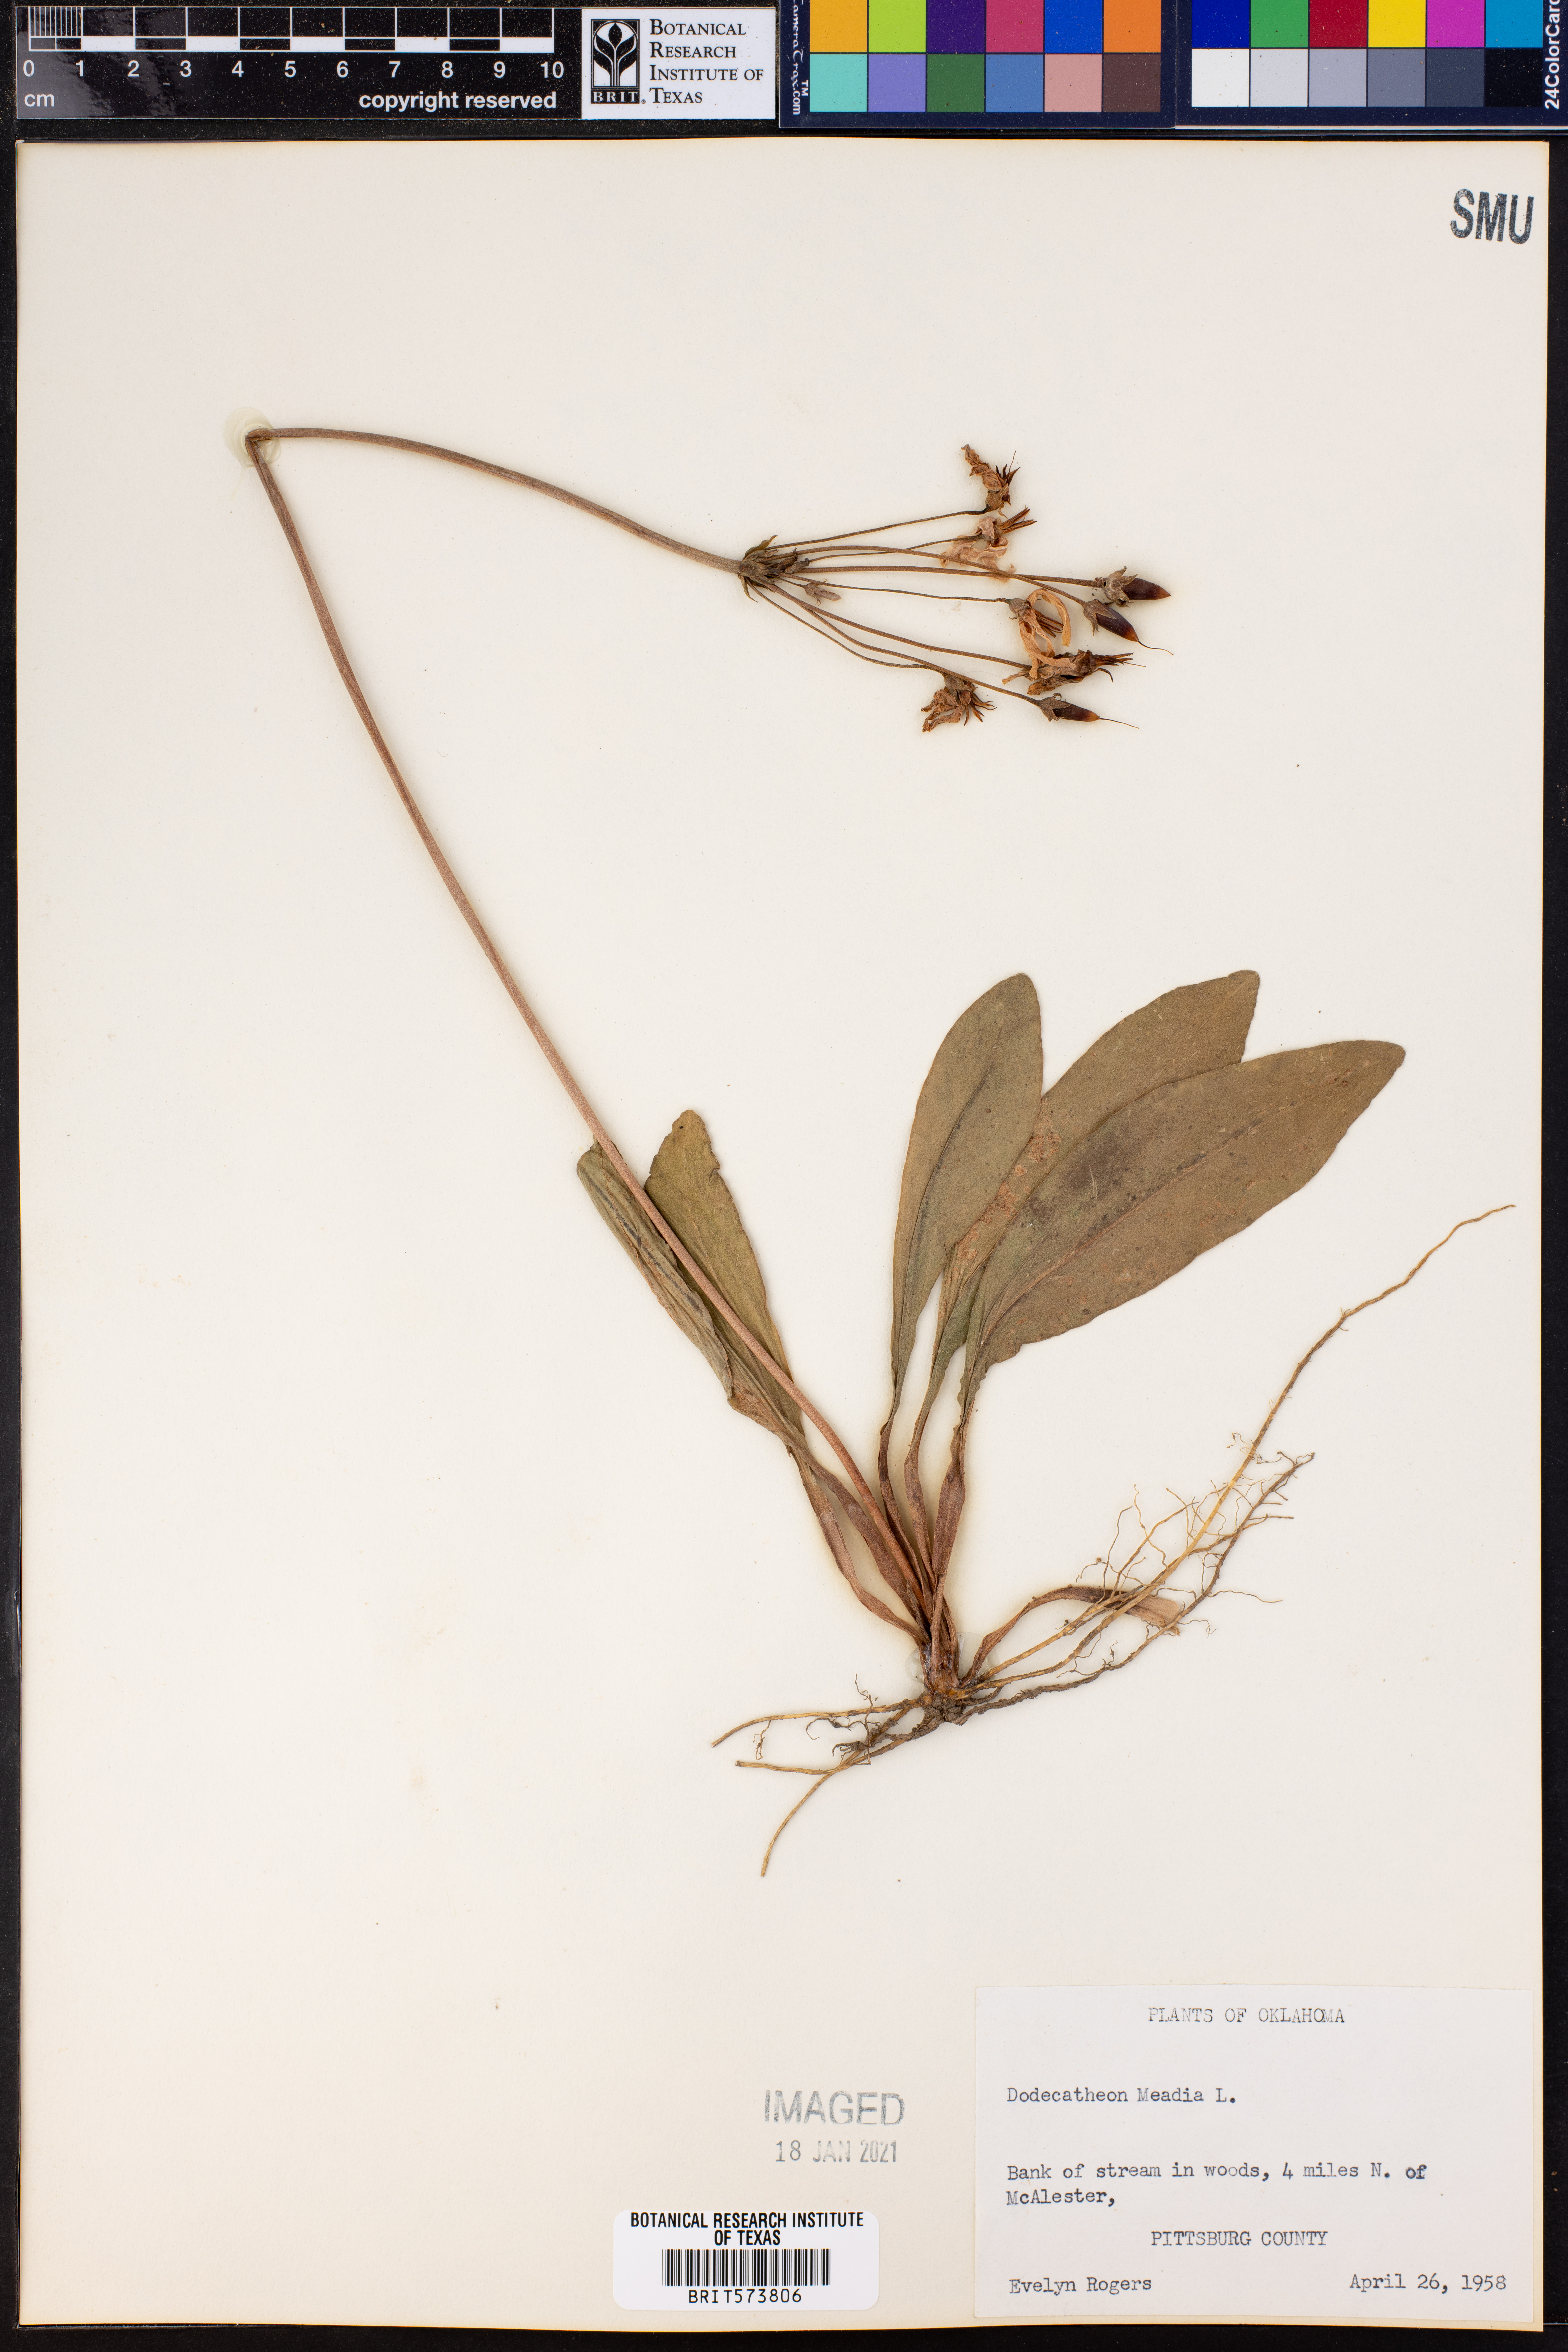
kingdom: Plantae
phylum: Tracheophyta
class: Magnoliopsida
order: Ericales
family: Primulaceae
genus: Dodecatheon
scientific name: Dodecatheon meadia
